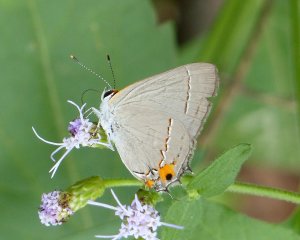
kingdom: Animalia
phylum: Arthropoda
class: Insecta
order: Lepidoptera
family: Lycaenidae
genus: Strymon
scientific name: Strymon melinus
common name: Gray Hairstreak
